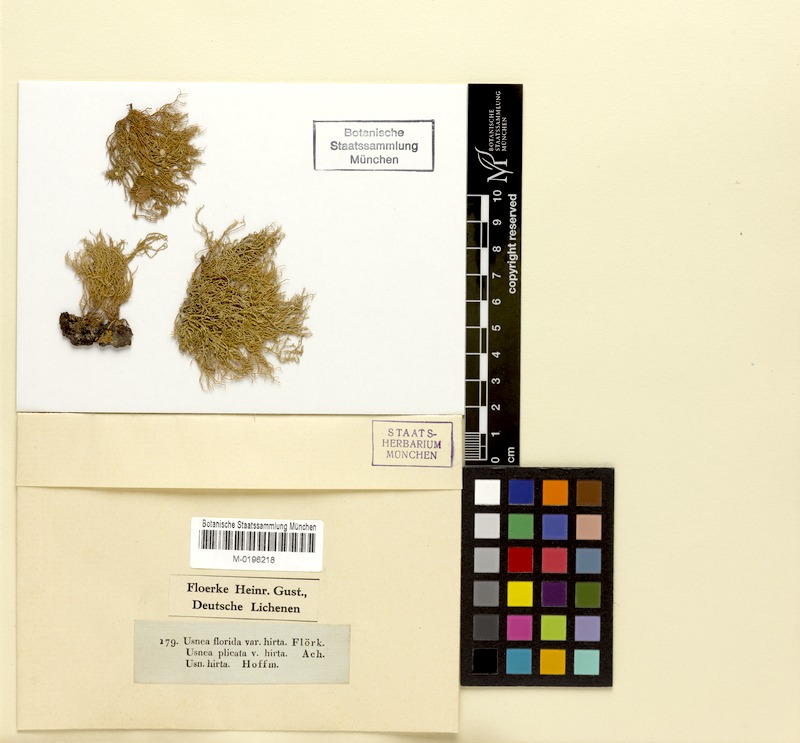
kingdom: Fungi
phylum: Ascomycota
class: Lecanoromycetes
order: Lecanorales
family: Parmeliaceae
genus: Usnea
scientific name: Usnea hirta
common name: Bristly beard lichen
